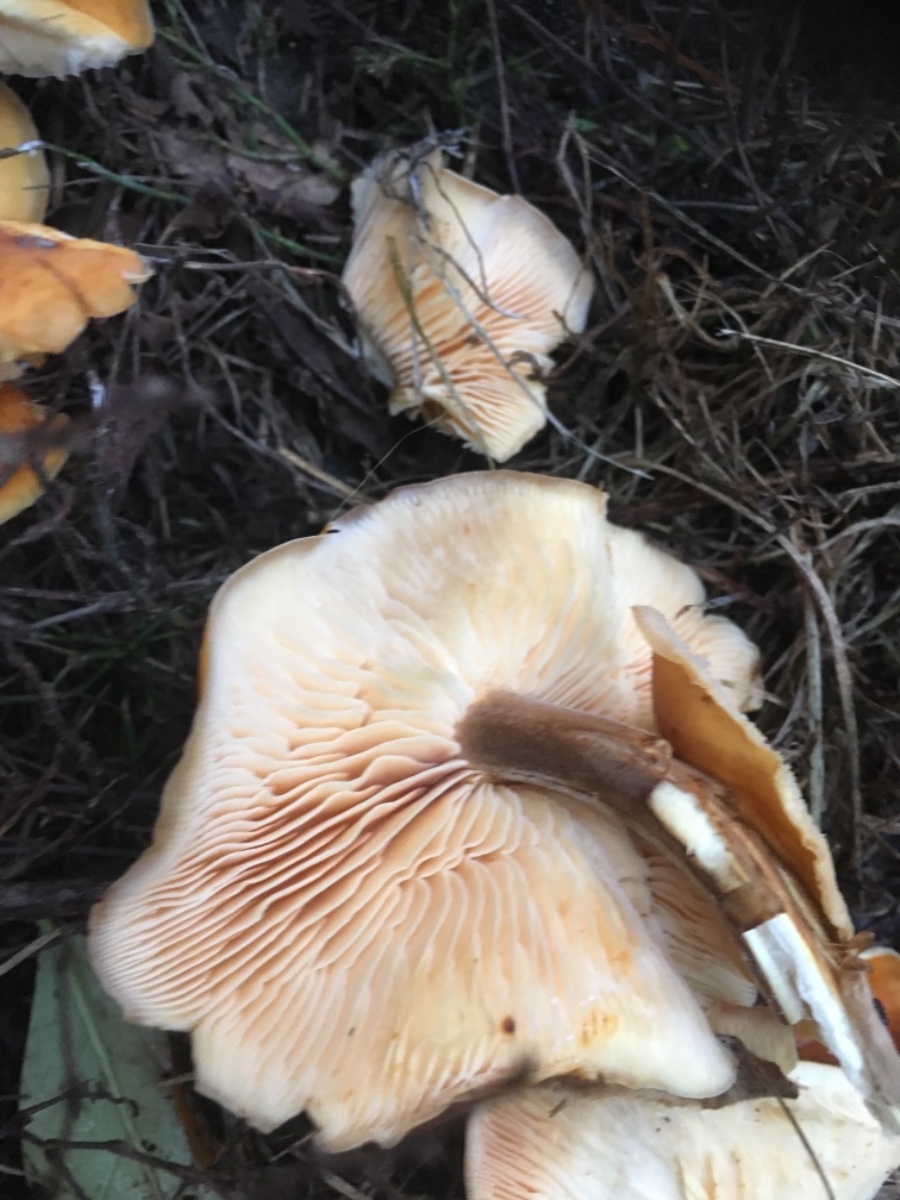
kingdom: Fungi
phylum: Basidiomycota
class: Agaricomycetes
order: Agaricales
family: Physalacriaceae
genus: Flammulina
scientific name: Flammulina velutipes
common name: gul fløjlsfod
